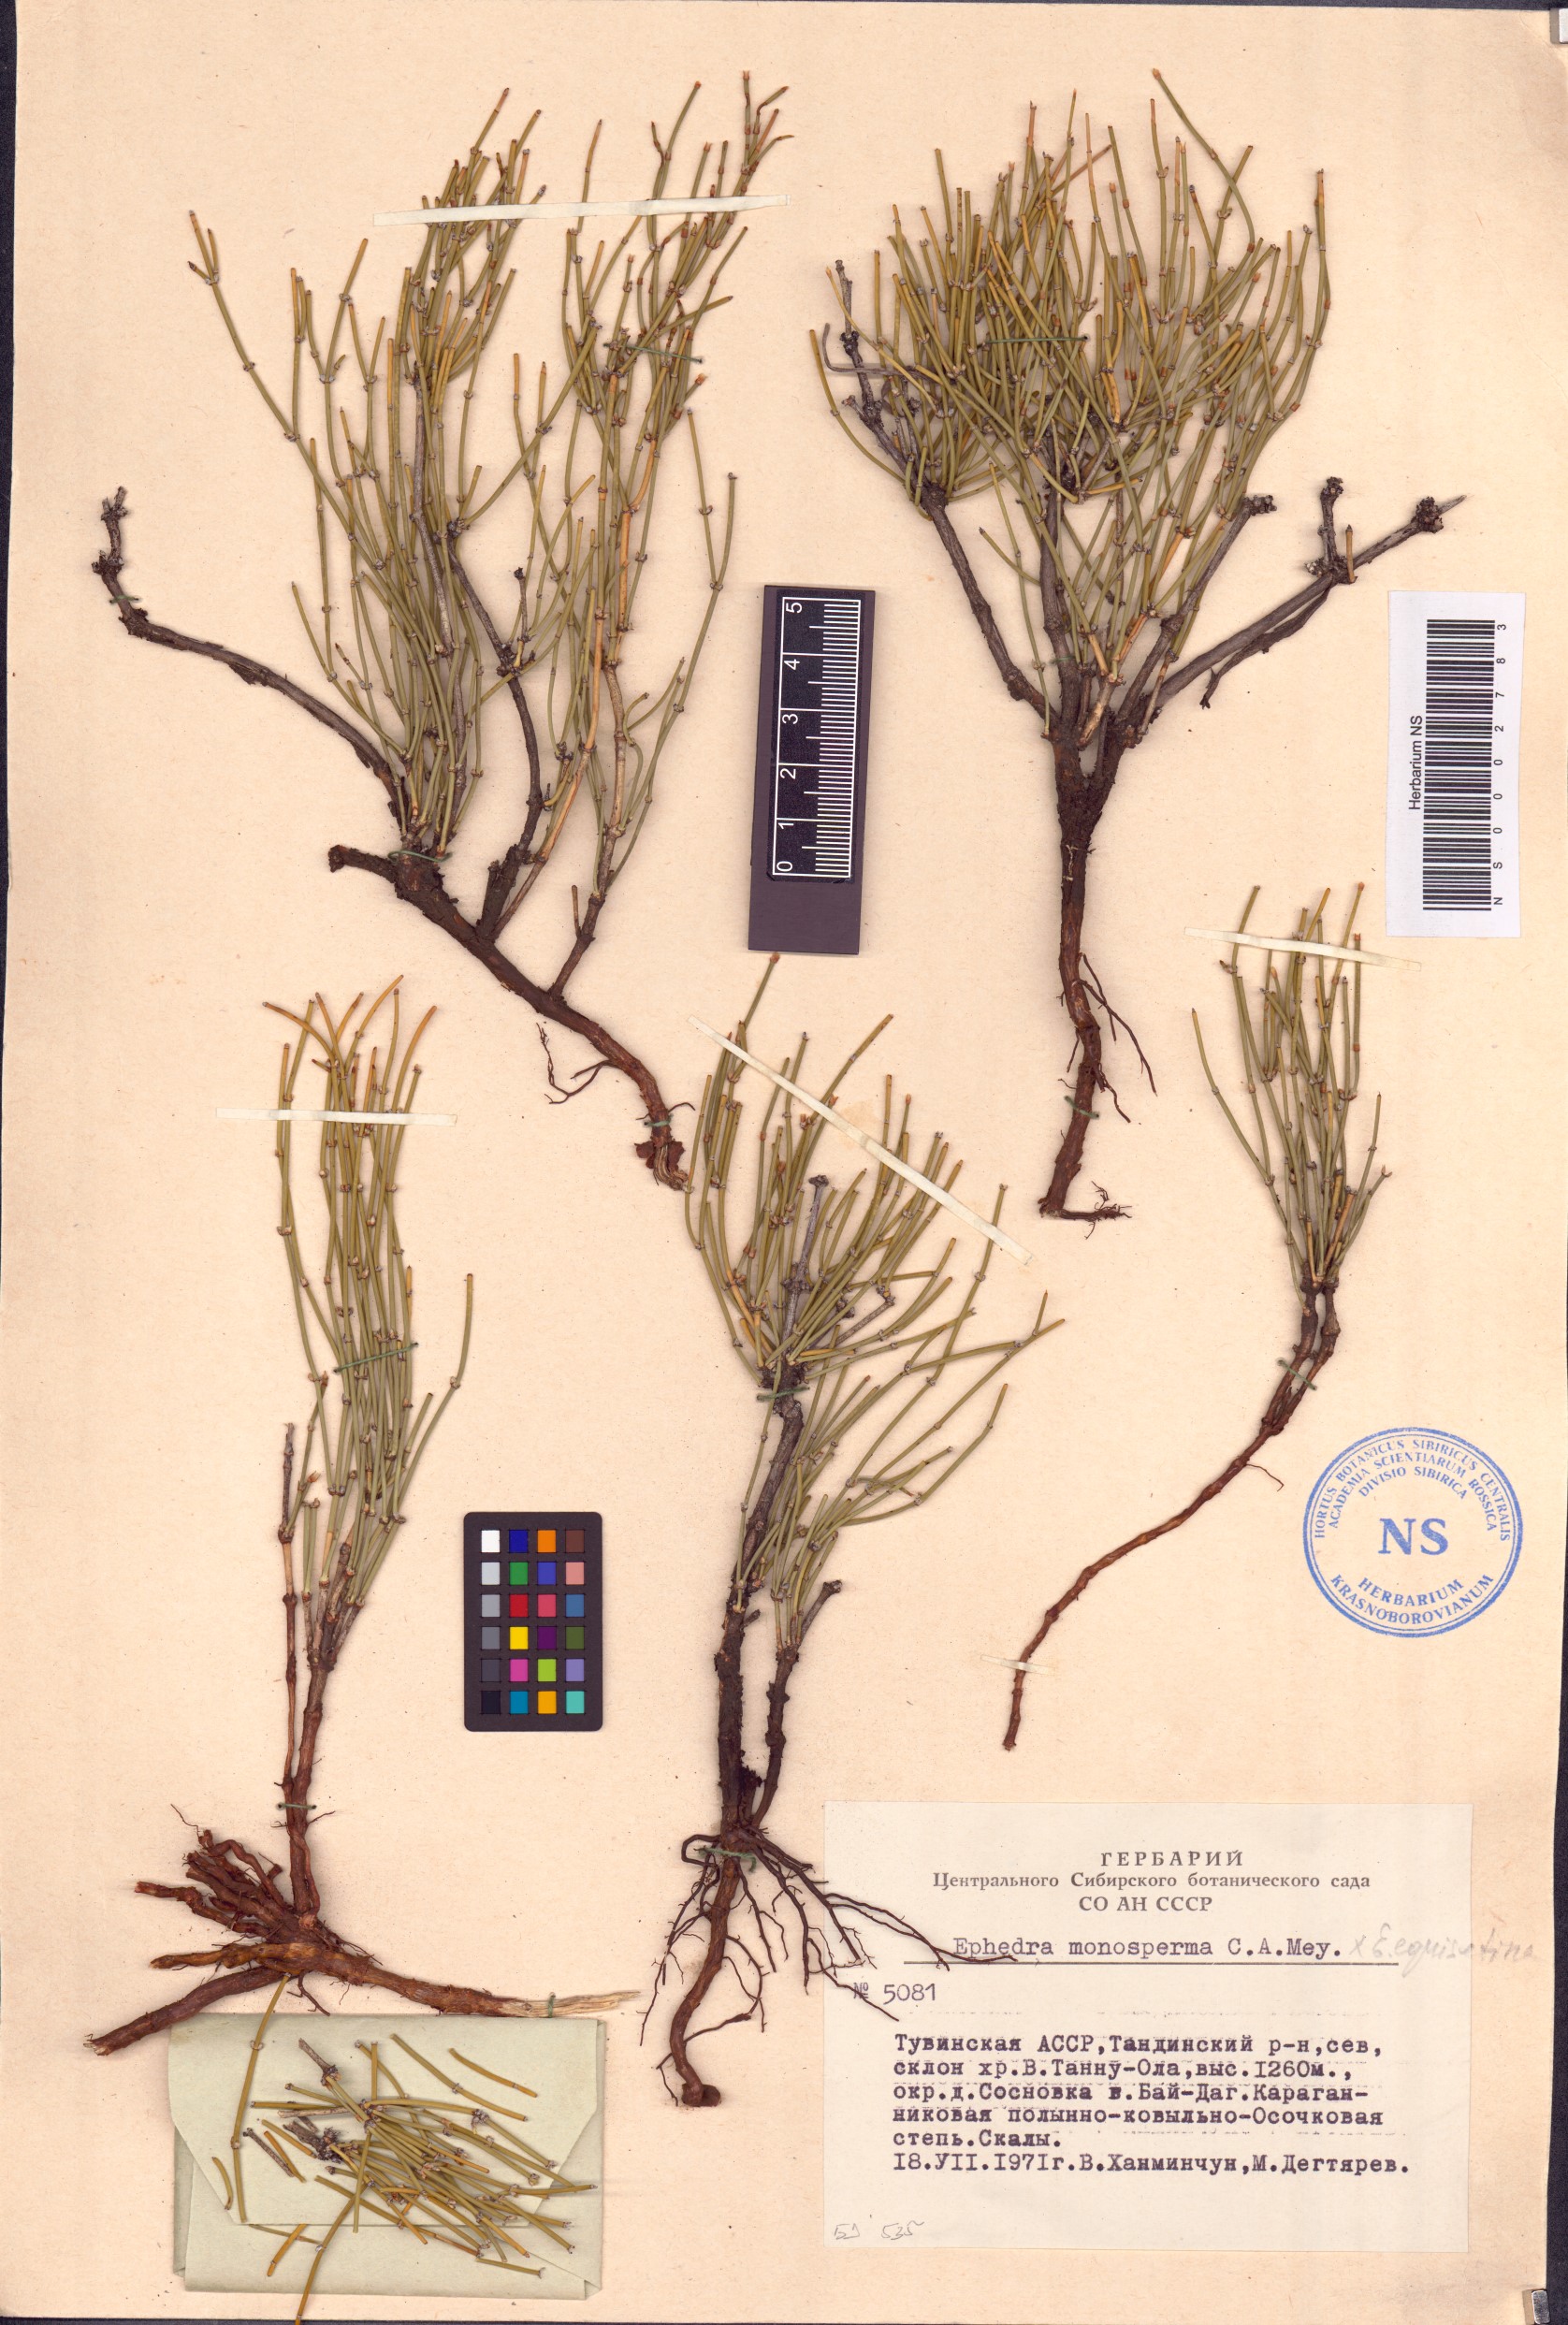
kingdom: Plantae
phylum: Tracheophyta
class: Gnetopsida
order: Ephedrales
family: Ephedraceae
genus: Ephedra
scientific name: Ephedra monosperma
